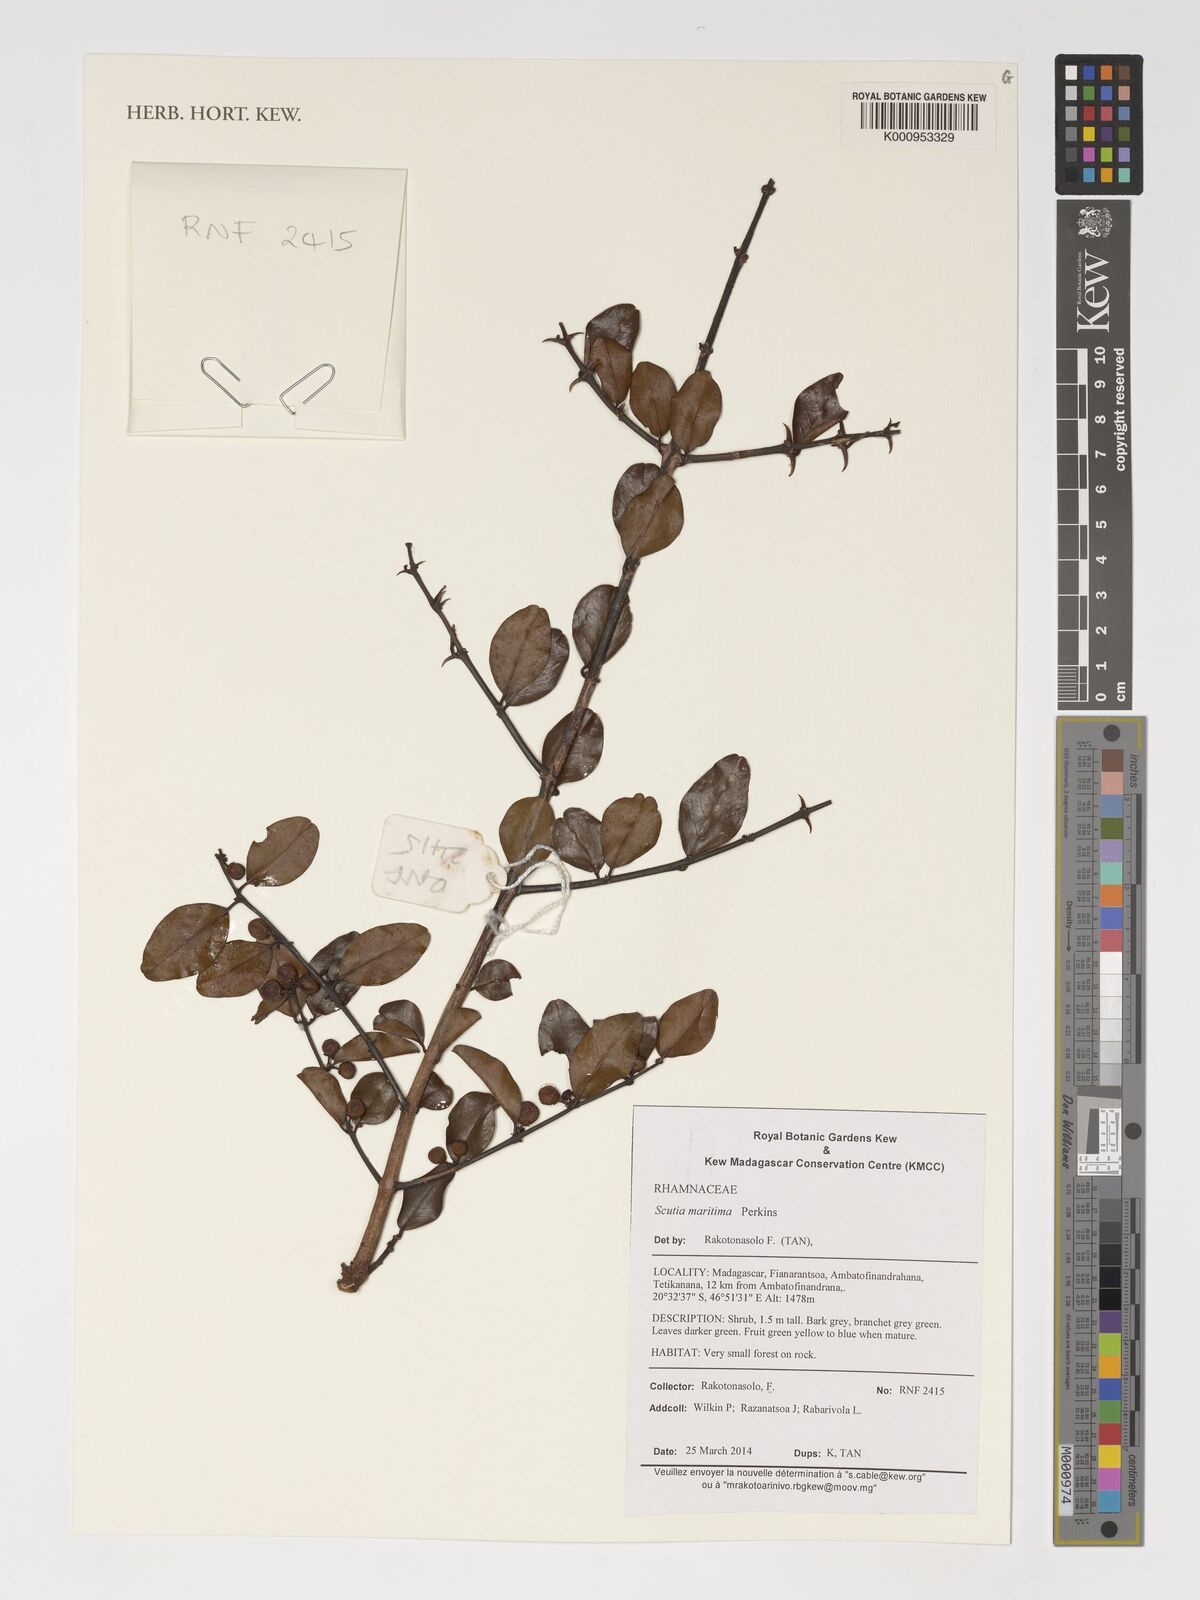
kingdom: Plantae
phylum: Tracheophyta
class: Magnoliopsida
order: Rosales
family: Rhamnaceae
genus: Scutia
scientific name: Scutia spicata
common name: Spiny bush
